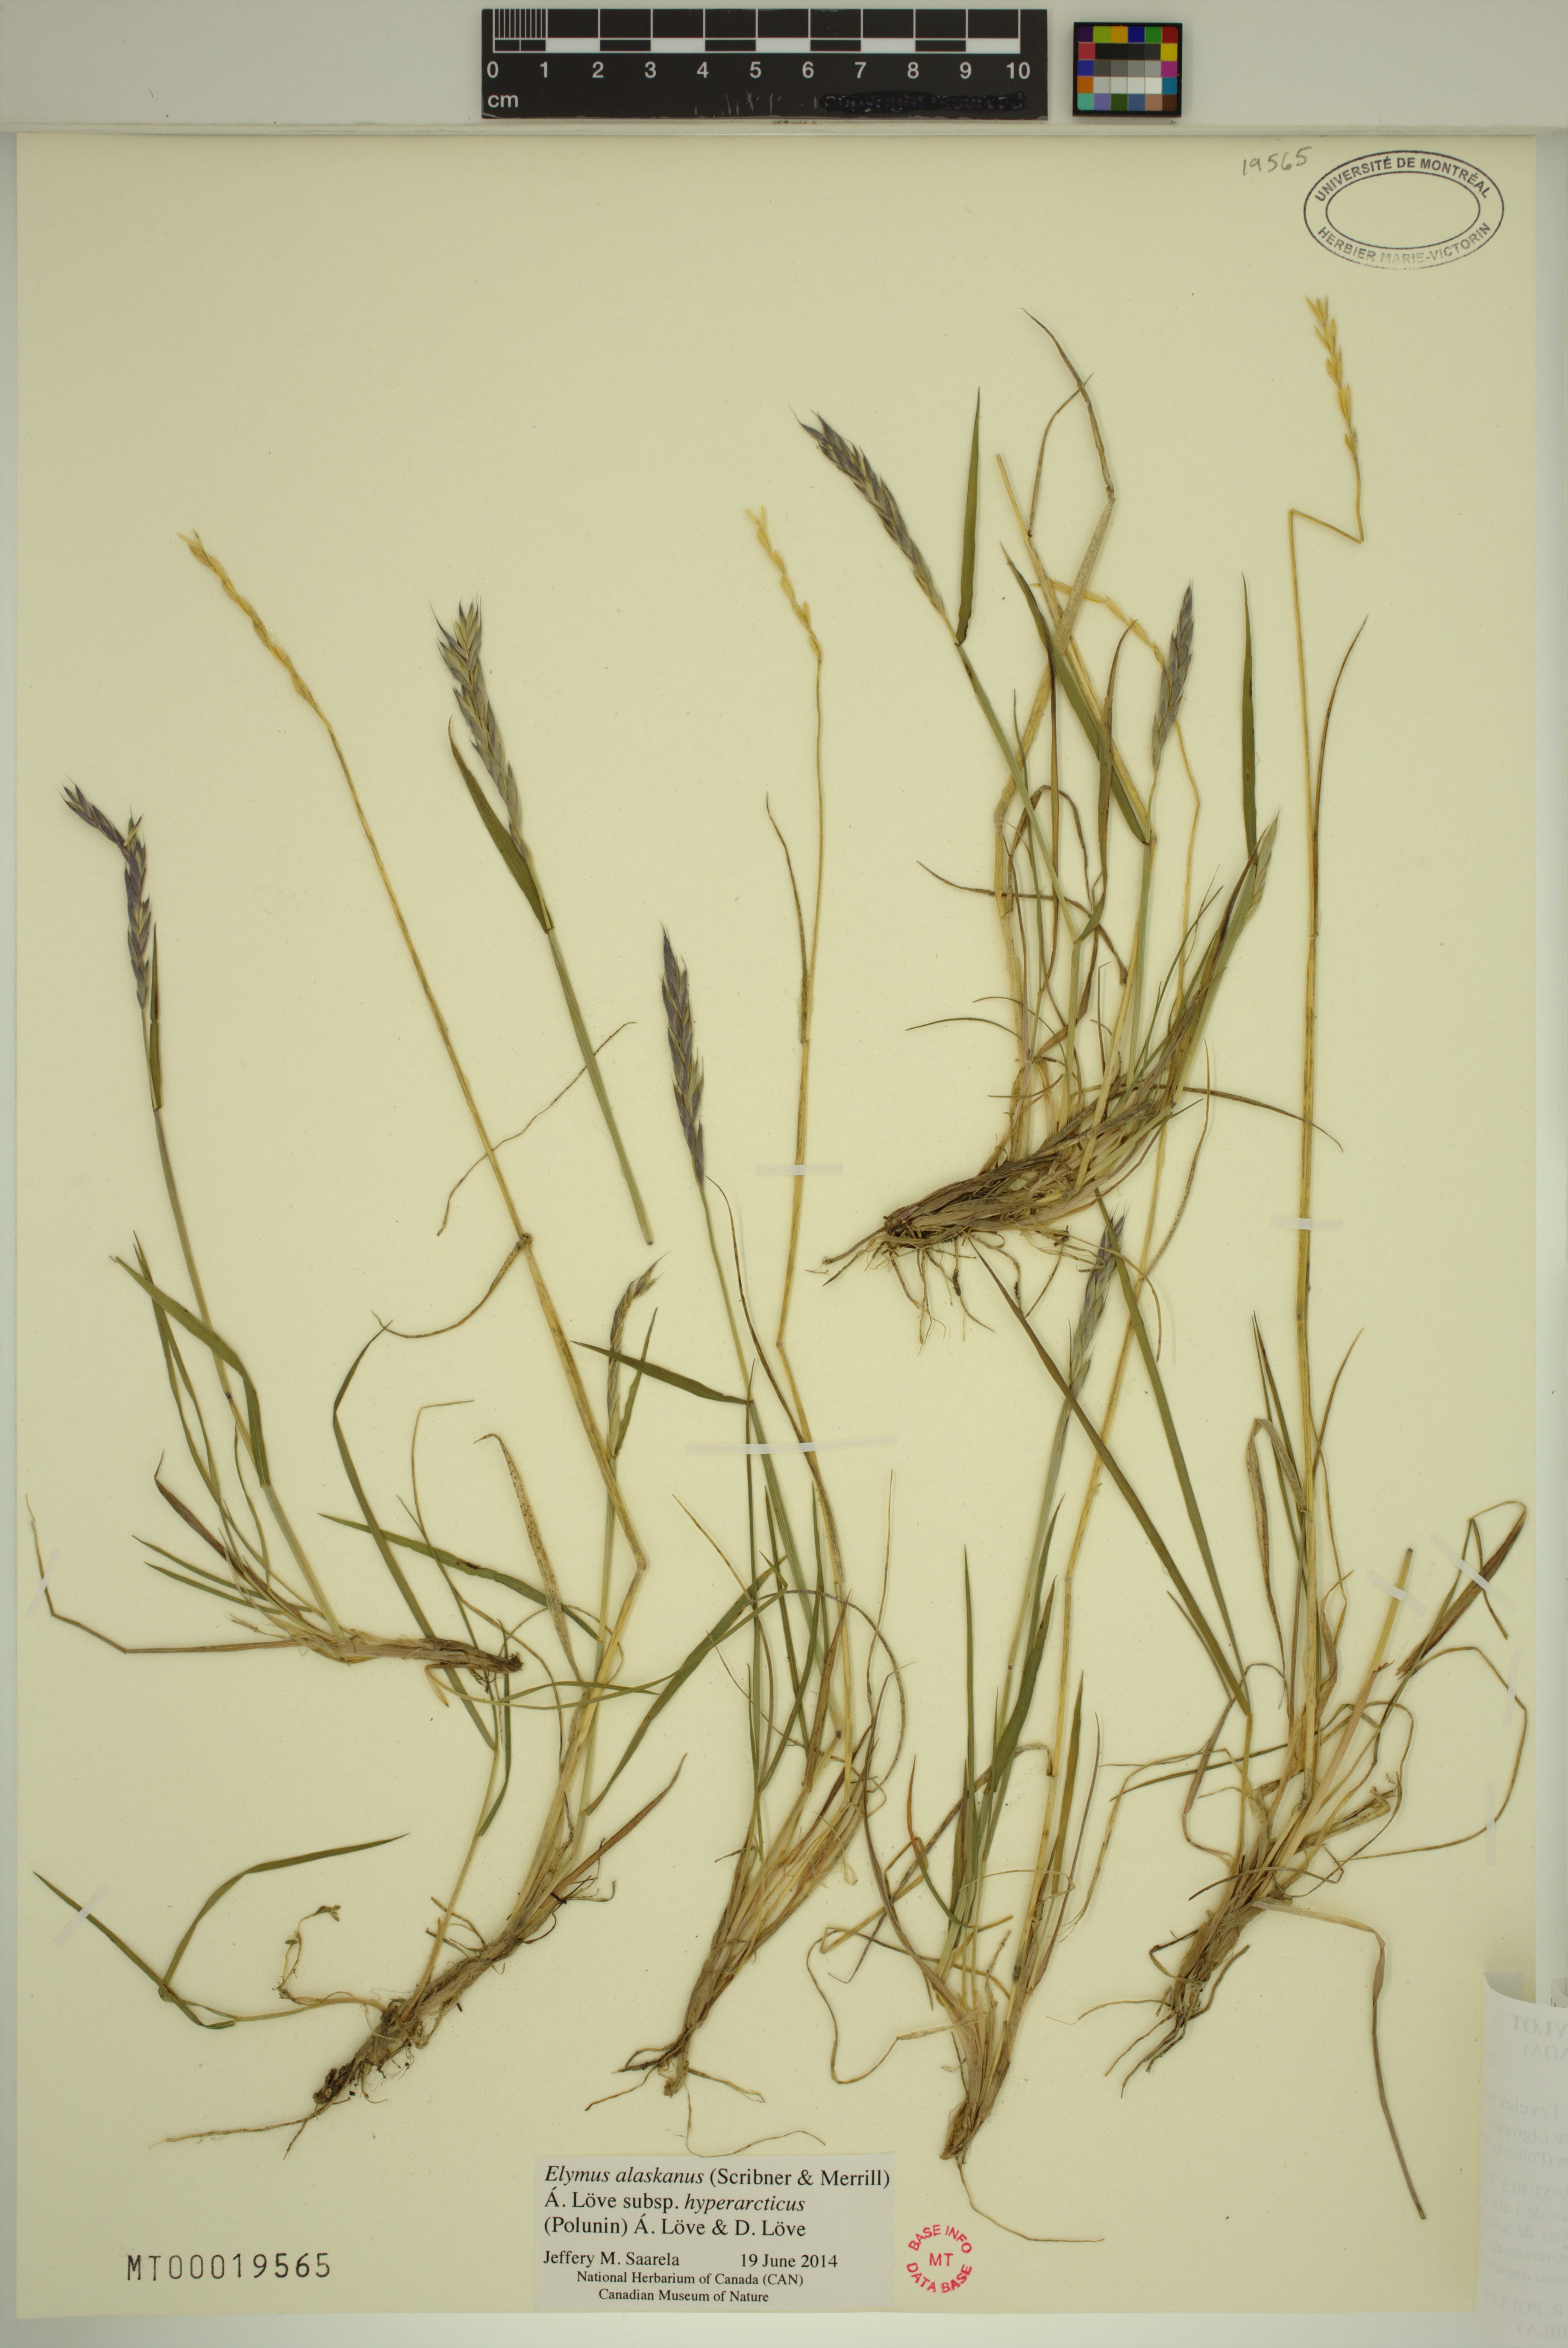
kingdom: Plantae
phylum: Tracheophyta
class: Liliopsida
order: Poales
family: Poaceae
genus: Elymus
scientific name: Elymus sajanensis
